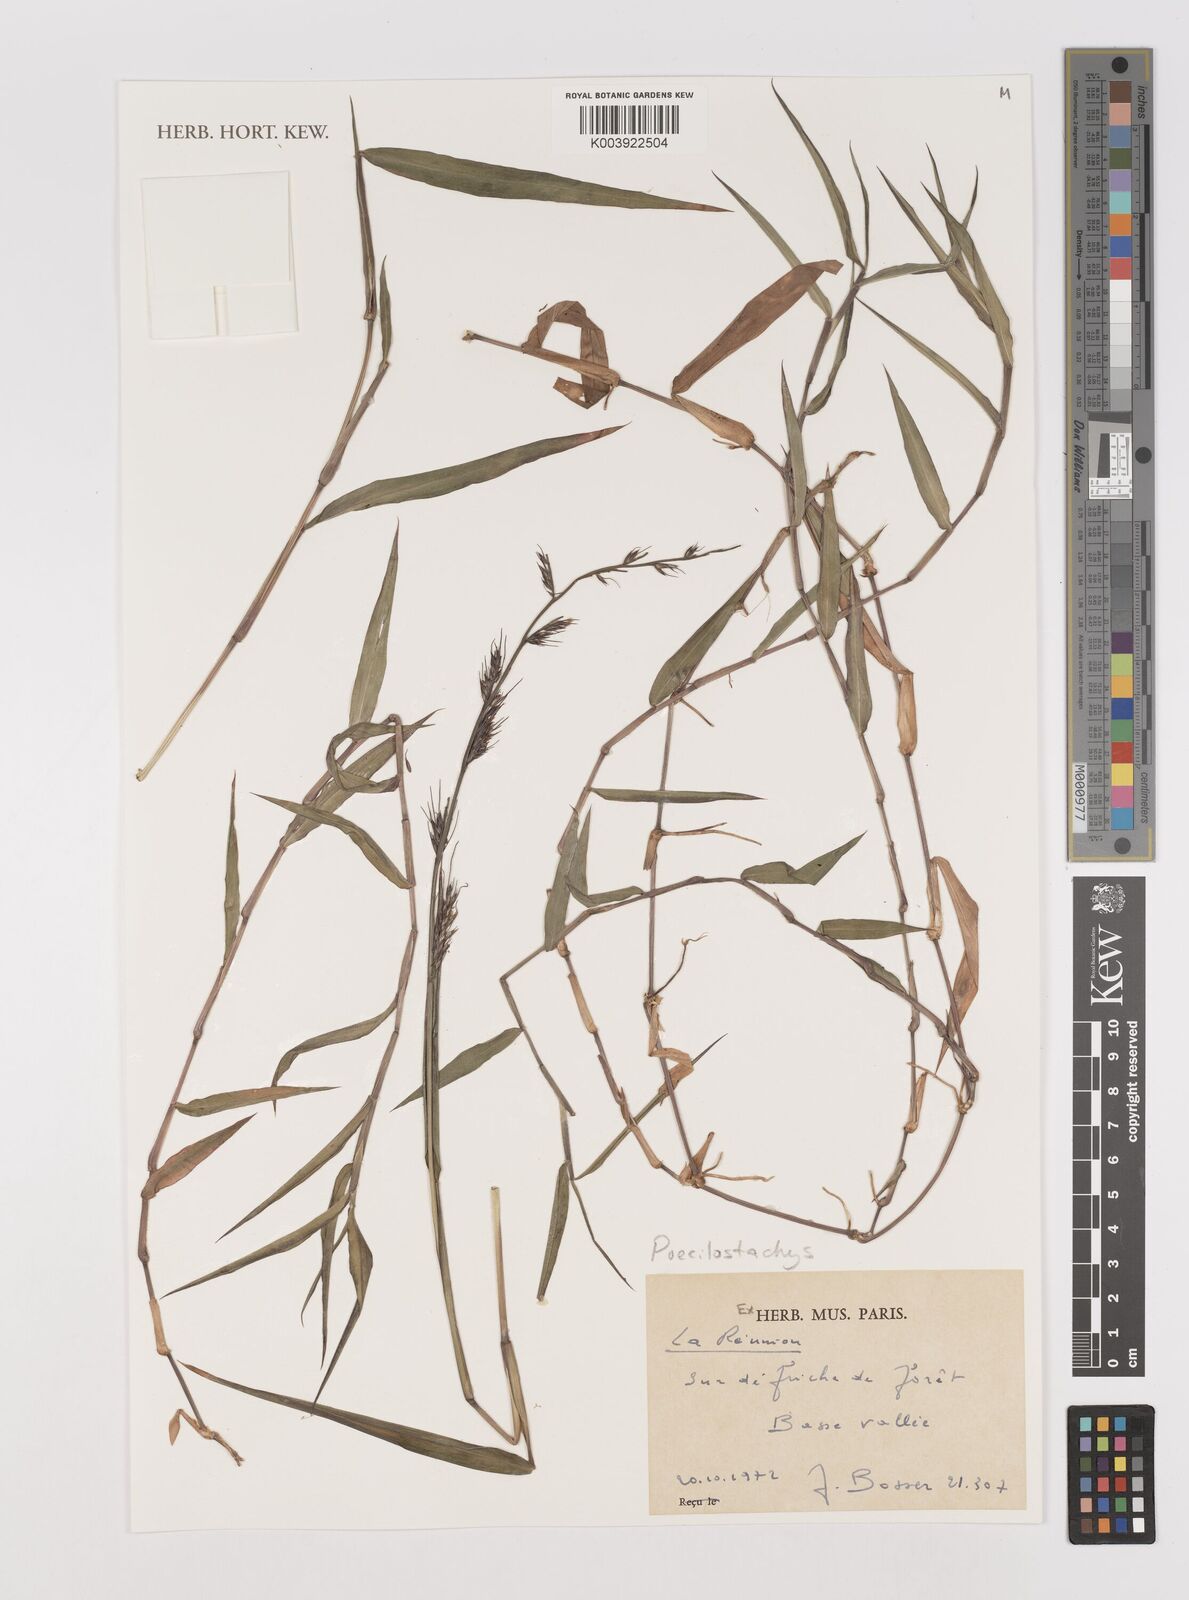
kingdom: Plantae
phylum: Tracheophyta
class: Liliopsida
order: Poales
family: Poaceae
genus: Poecilostachys
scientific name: Poecilostachys
